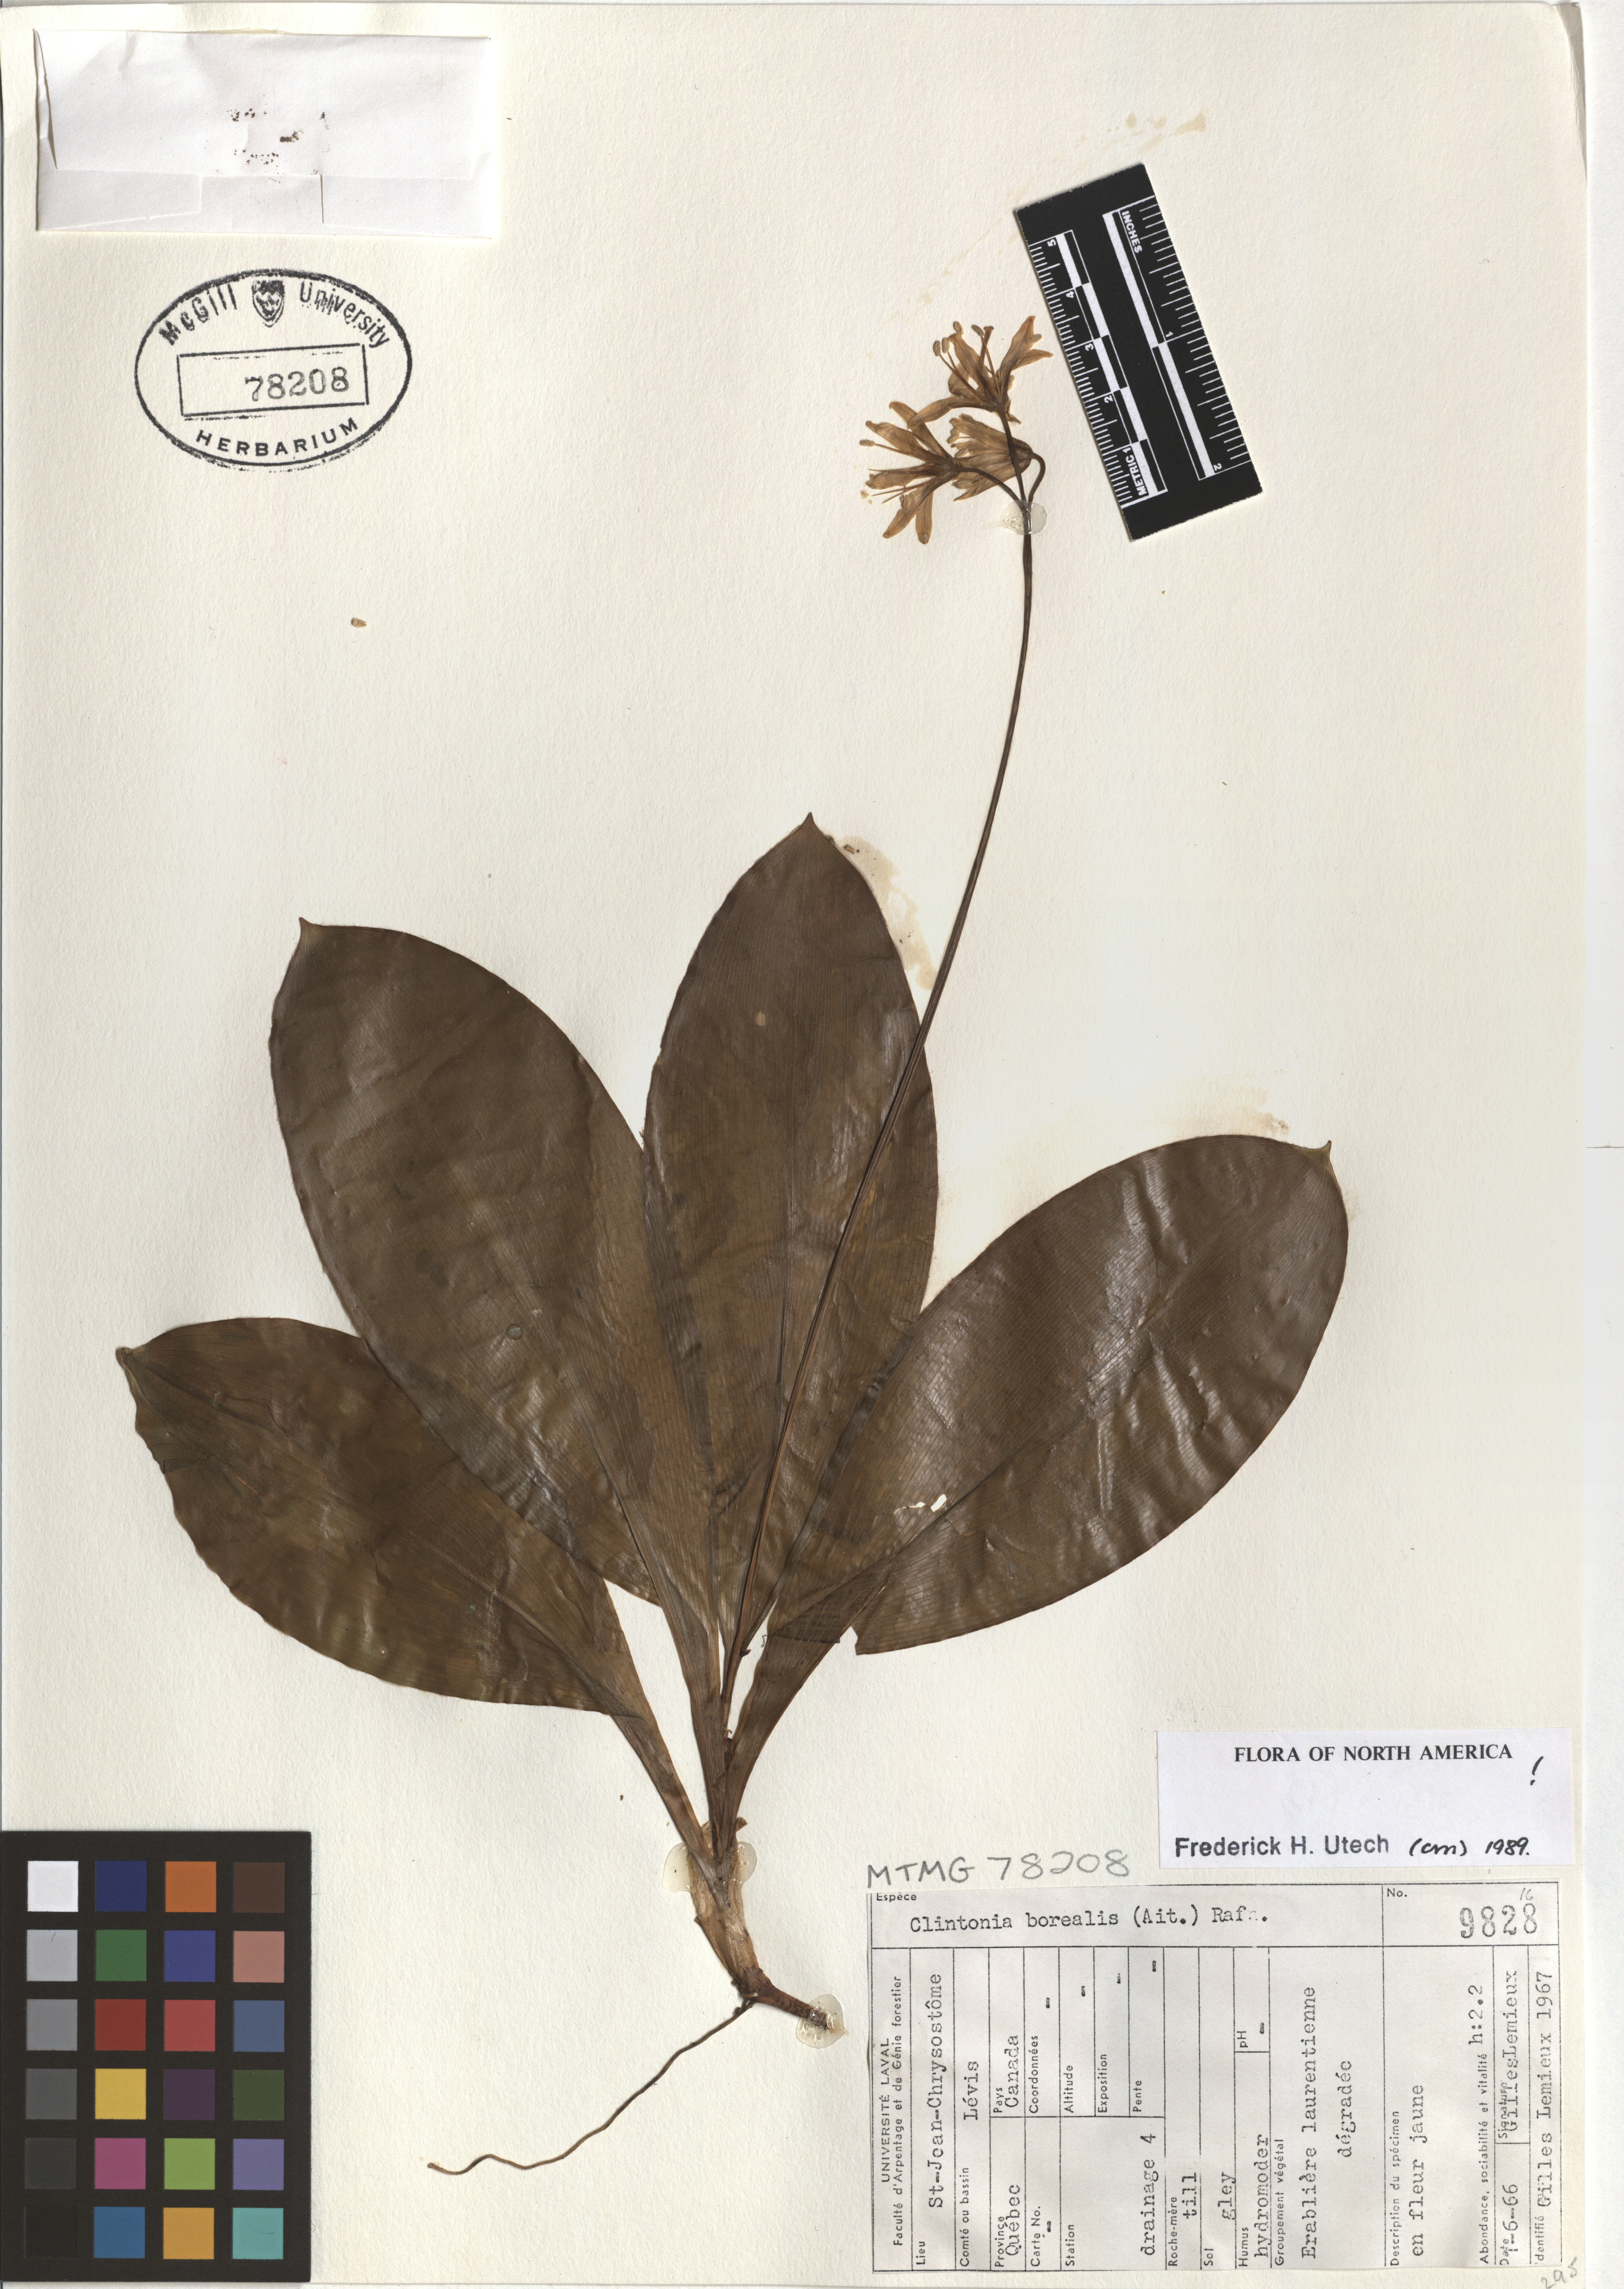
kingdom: Plantae
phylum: Tracheophyta
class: Liliopsida
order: Liliales
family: Liliaceae
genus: Clintonia
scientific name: Clintonia borealis
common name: Yellow clintonia
